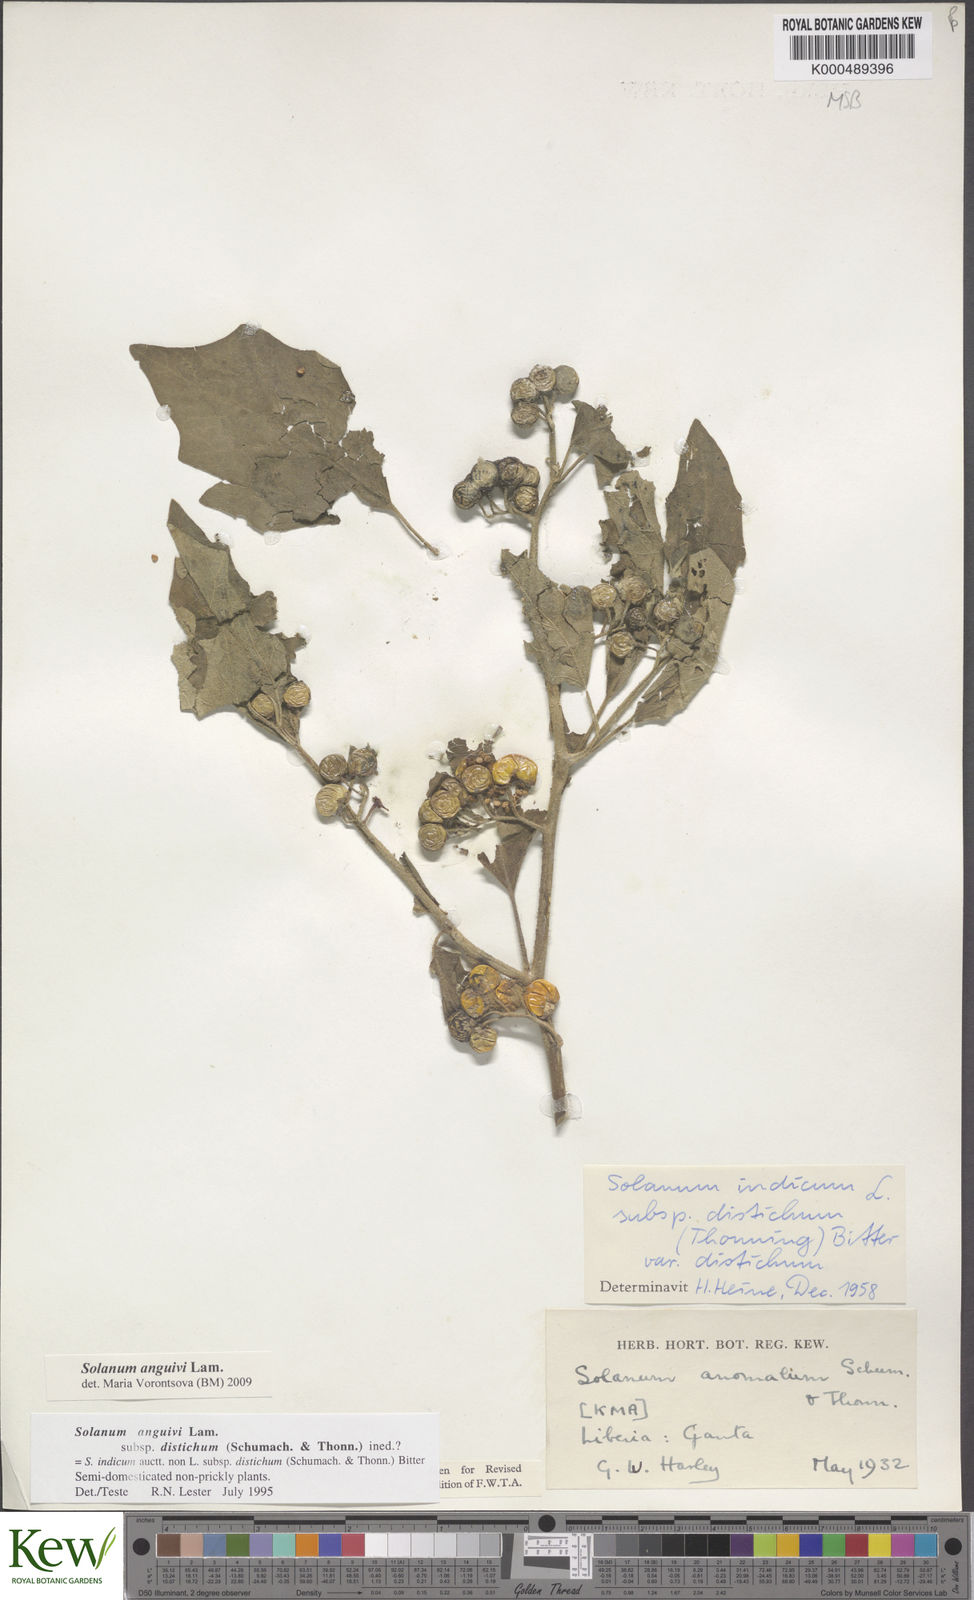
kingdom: Plantae
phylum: Tracheophyta
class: Magnoliopsida
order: Solanales
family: Solanaceae
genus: Solanum
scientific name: Solanum anguivi
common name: Forest bitterberry
